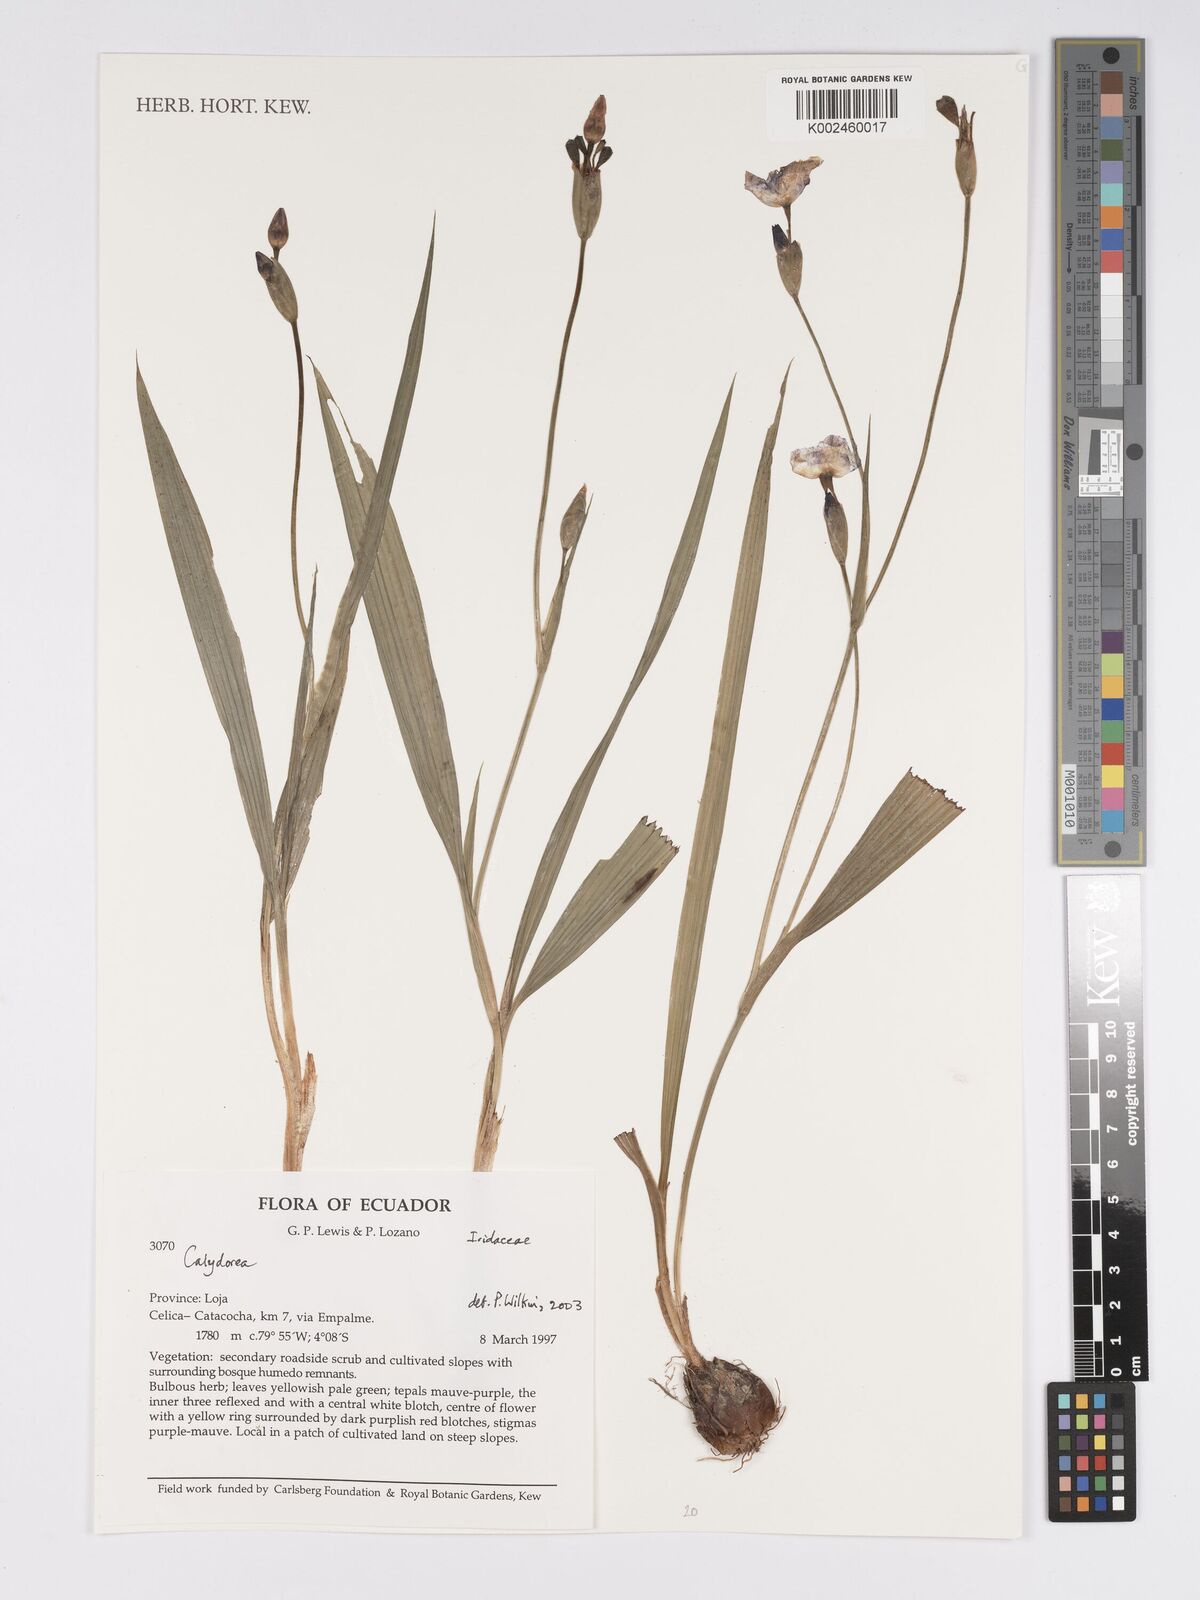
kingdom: Plantae
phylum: Tracheophyta
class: Liliopsida
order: Asparagales
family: Iridaceae
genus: Calydorea
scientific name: Calydorea
